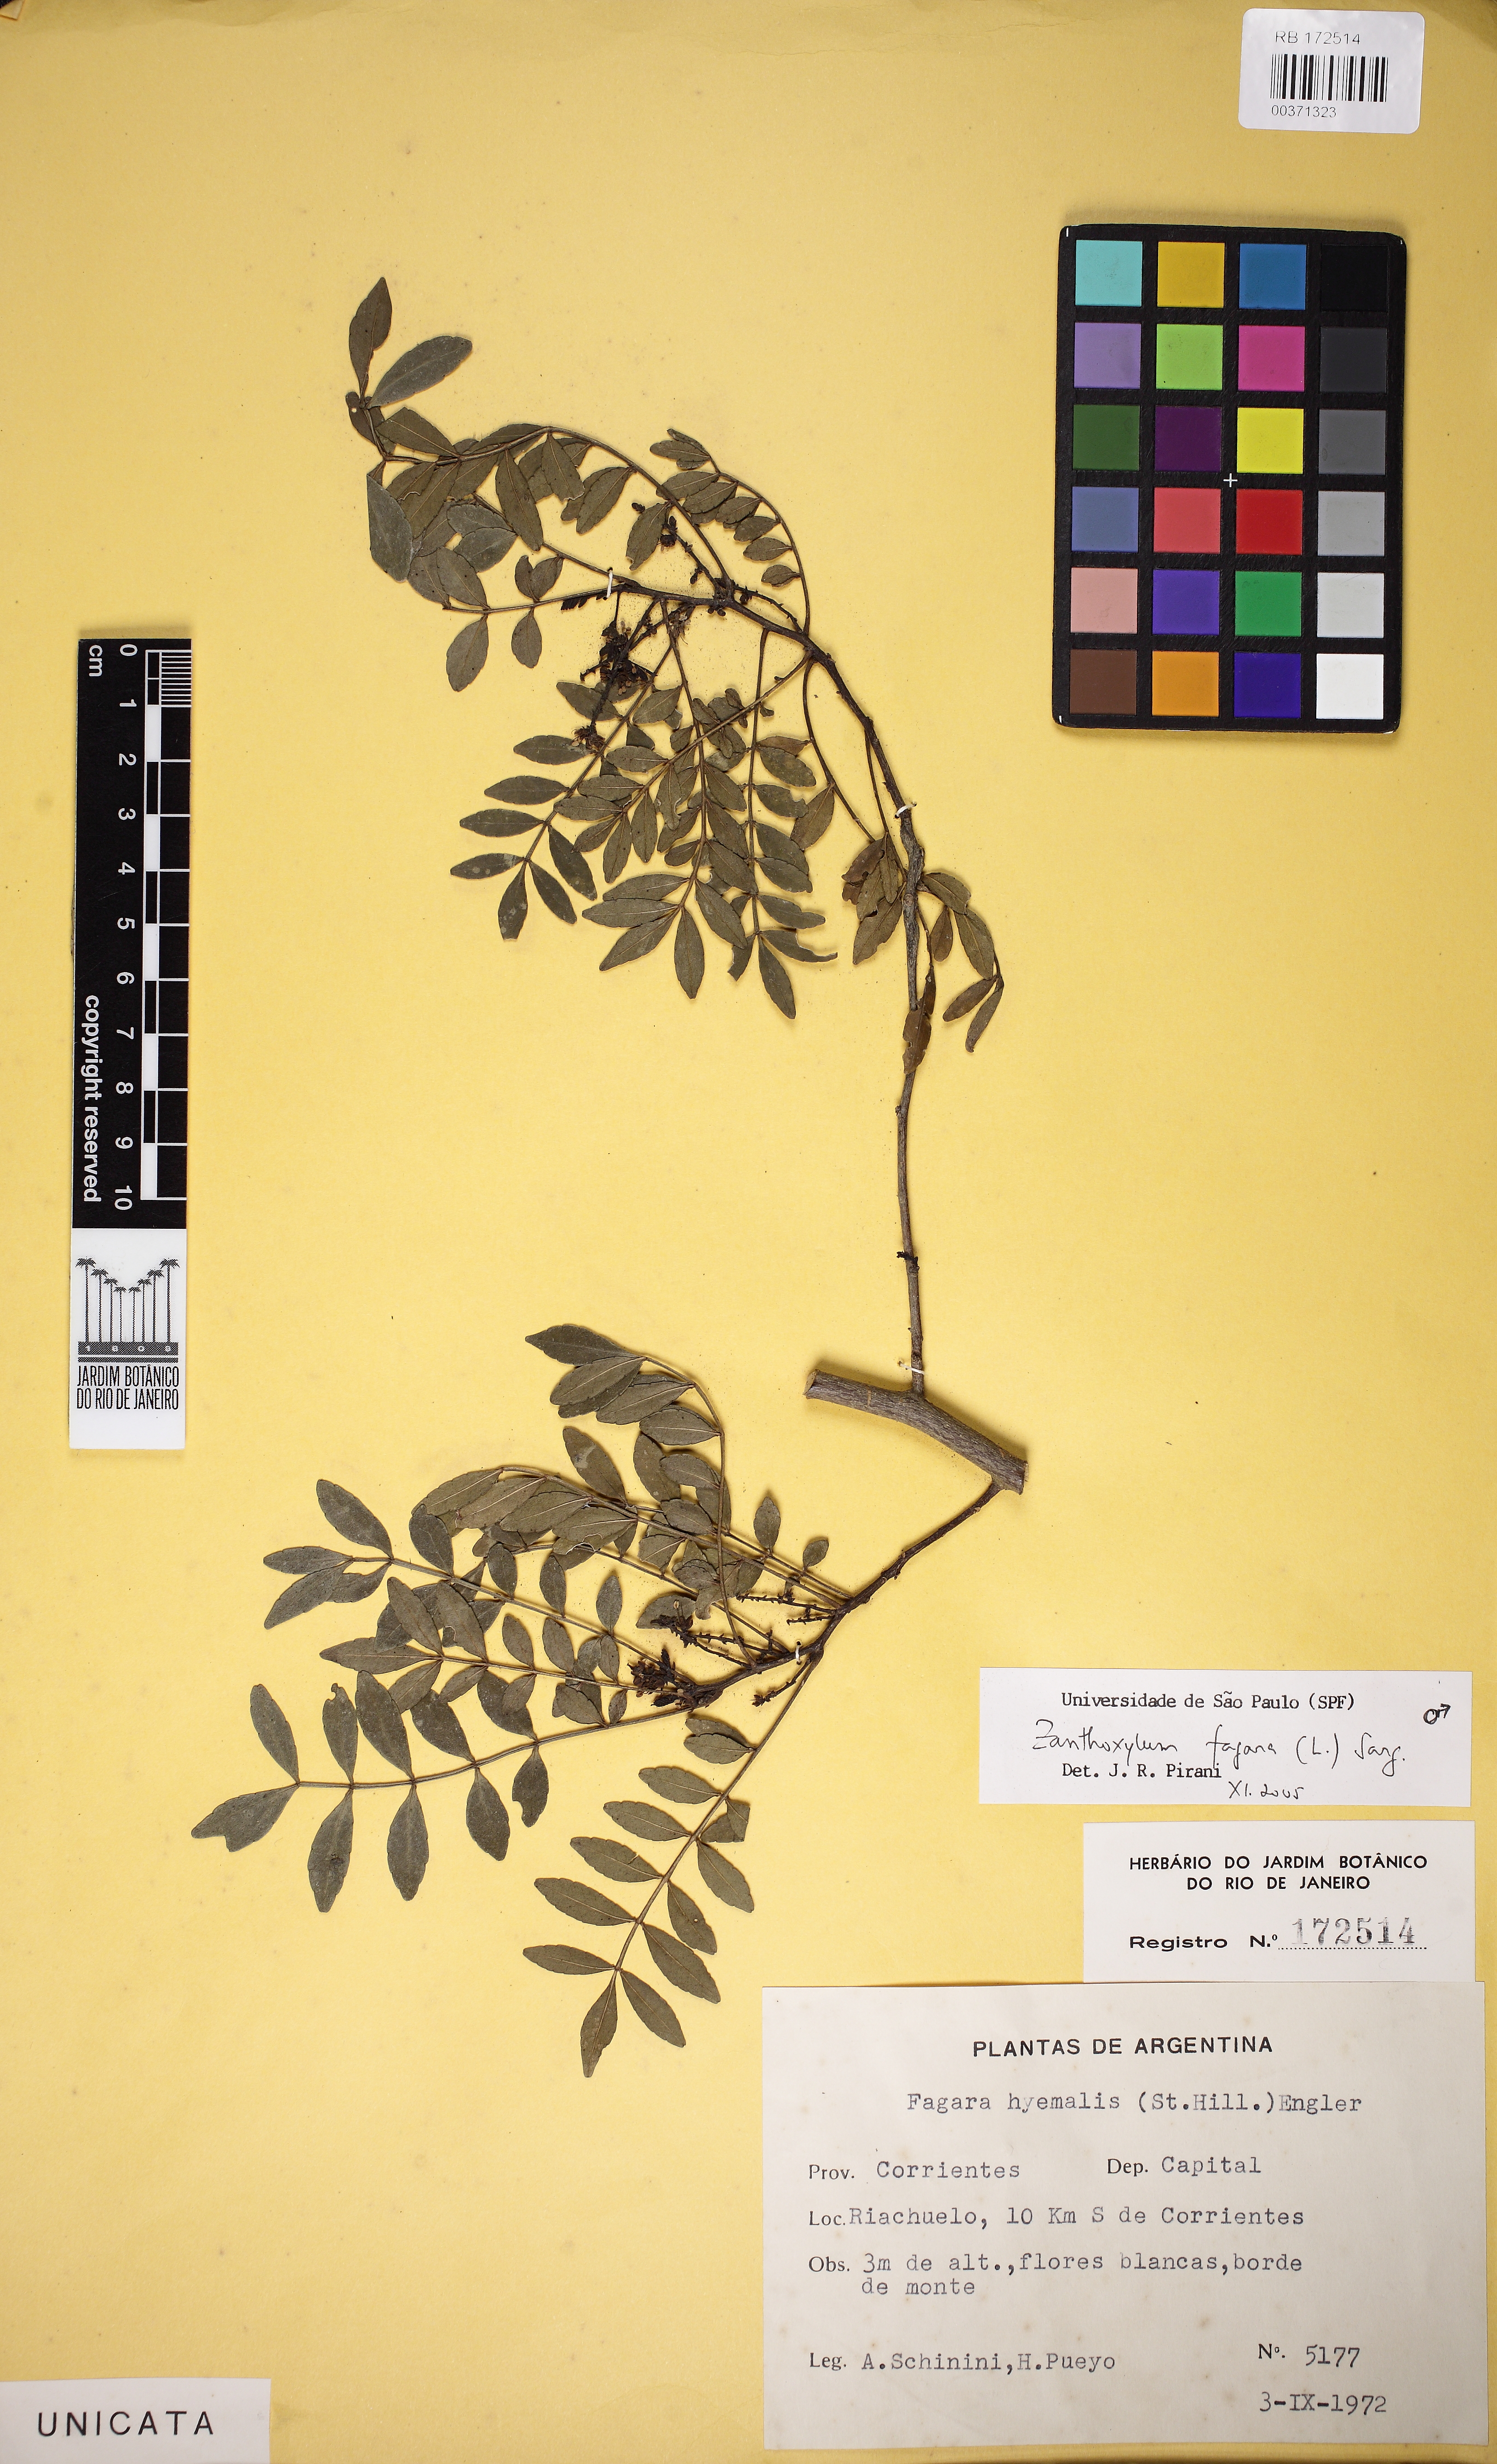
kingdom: Plantae
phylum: Tracheophyta
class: Magnoliopsida
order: Sapindales
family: Rutaceae
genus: Zanthoxylum
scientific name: Zanthoxylum fagara
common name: Lime prickly-ash
